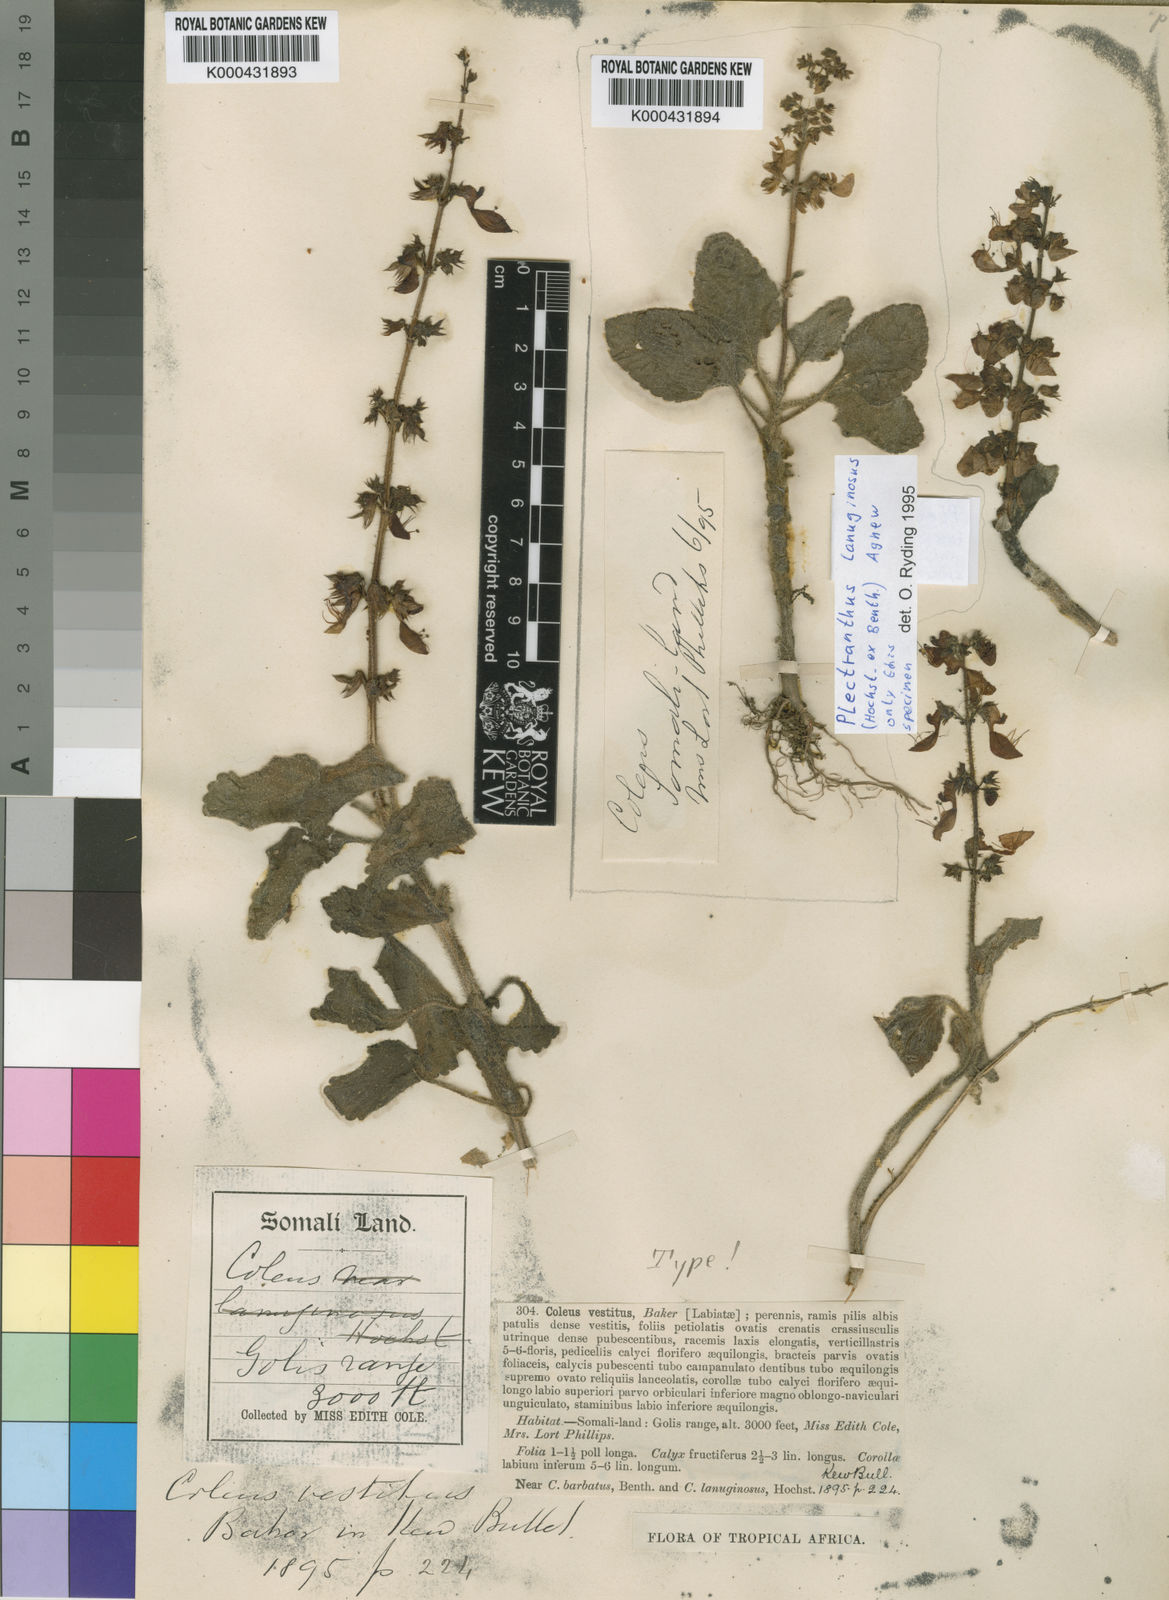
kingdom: Plantae
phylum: Tracheophyta
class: Magnoliopsida
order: Lamiales
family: Lamiaceae
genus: Coleus
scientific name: Coleus barbatus
